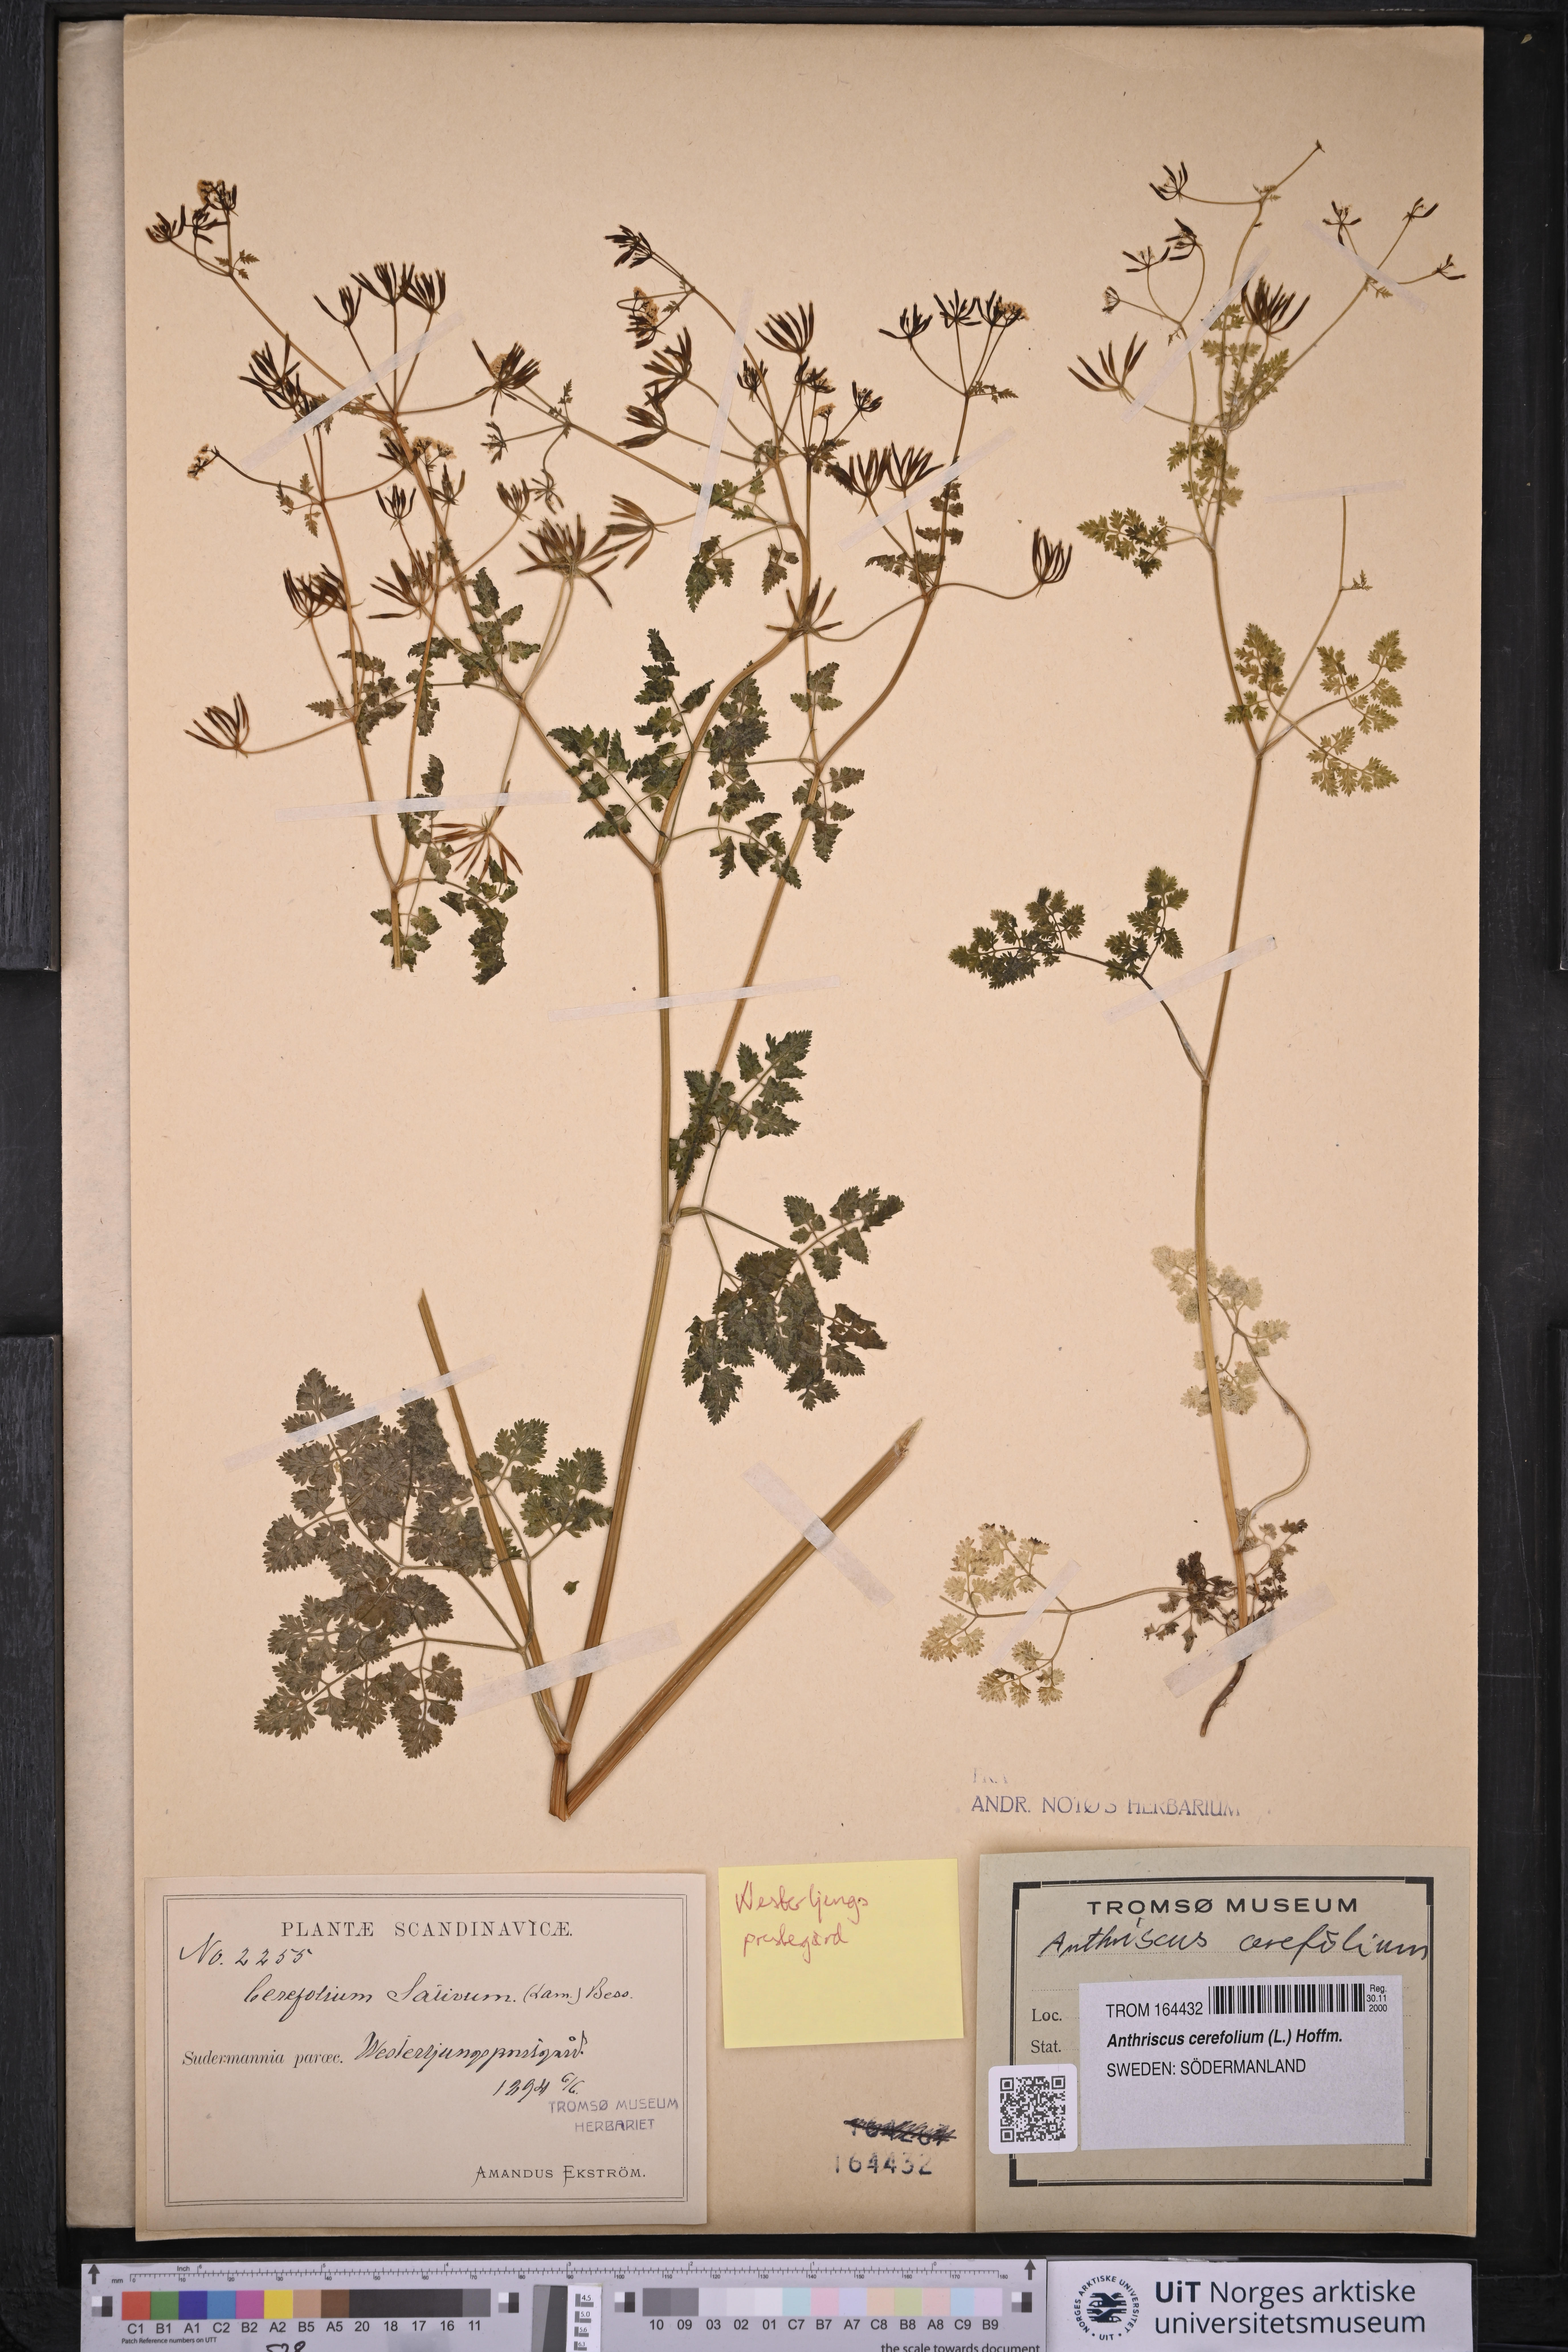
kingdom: Plantae
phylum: Tracheophyta
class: Magnoliopsida
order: Apiales
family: Apiaceae
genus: Anthriscus
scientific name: Anthriscus cerefolium
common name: Garden chervil
